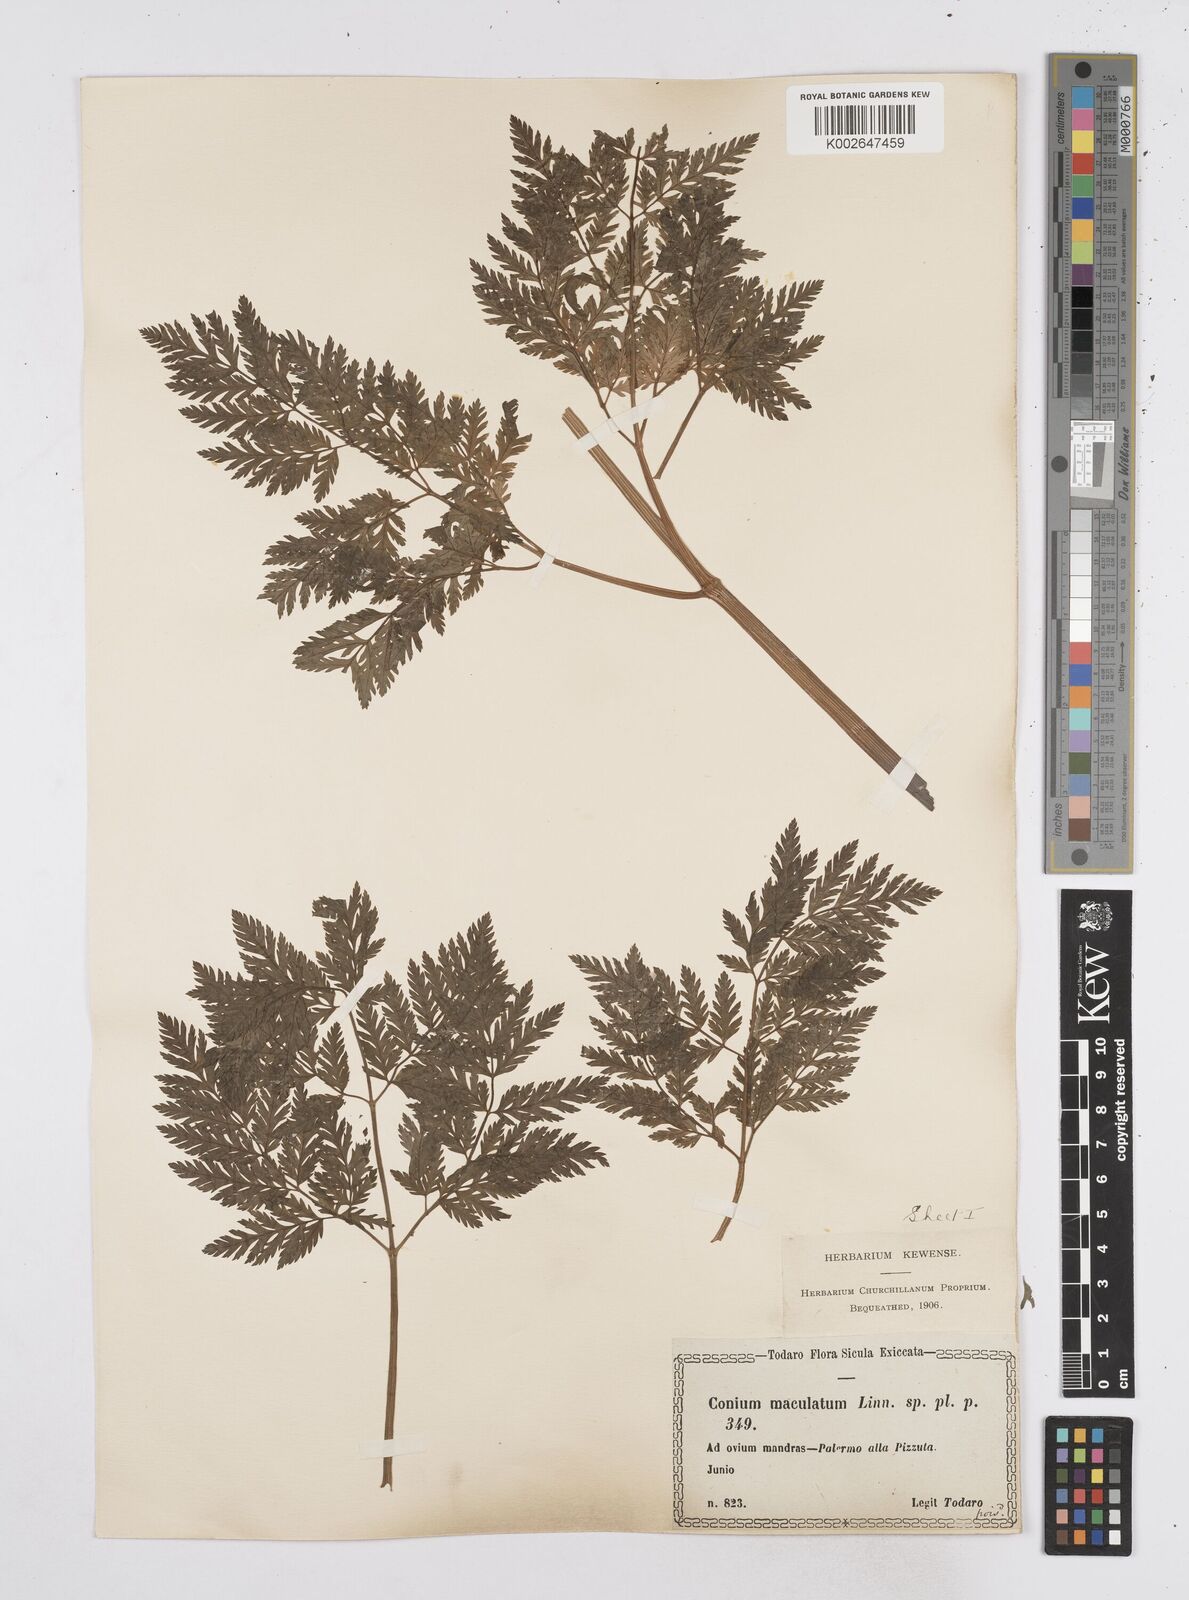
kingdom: Plantae
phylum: Tracheophyta
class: Magnoliopsida
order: Apiales
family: Apiaceae
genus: Conium
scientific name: Conium maculatum
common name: Hemlock
